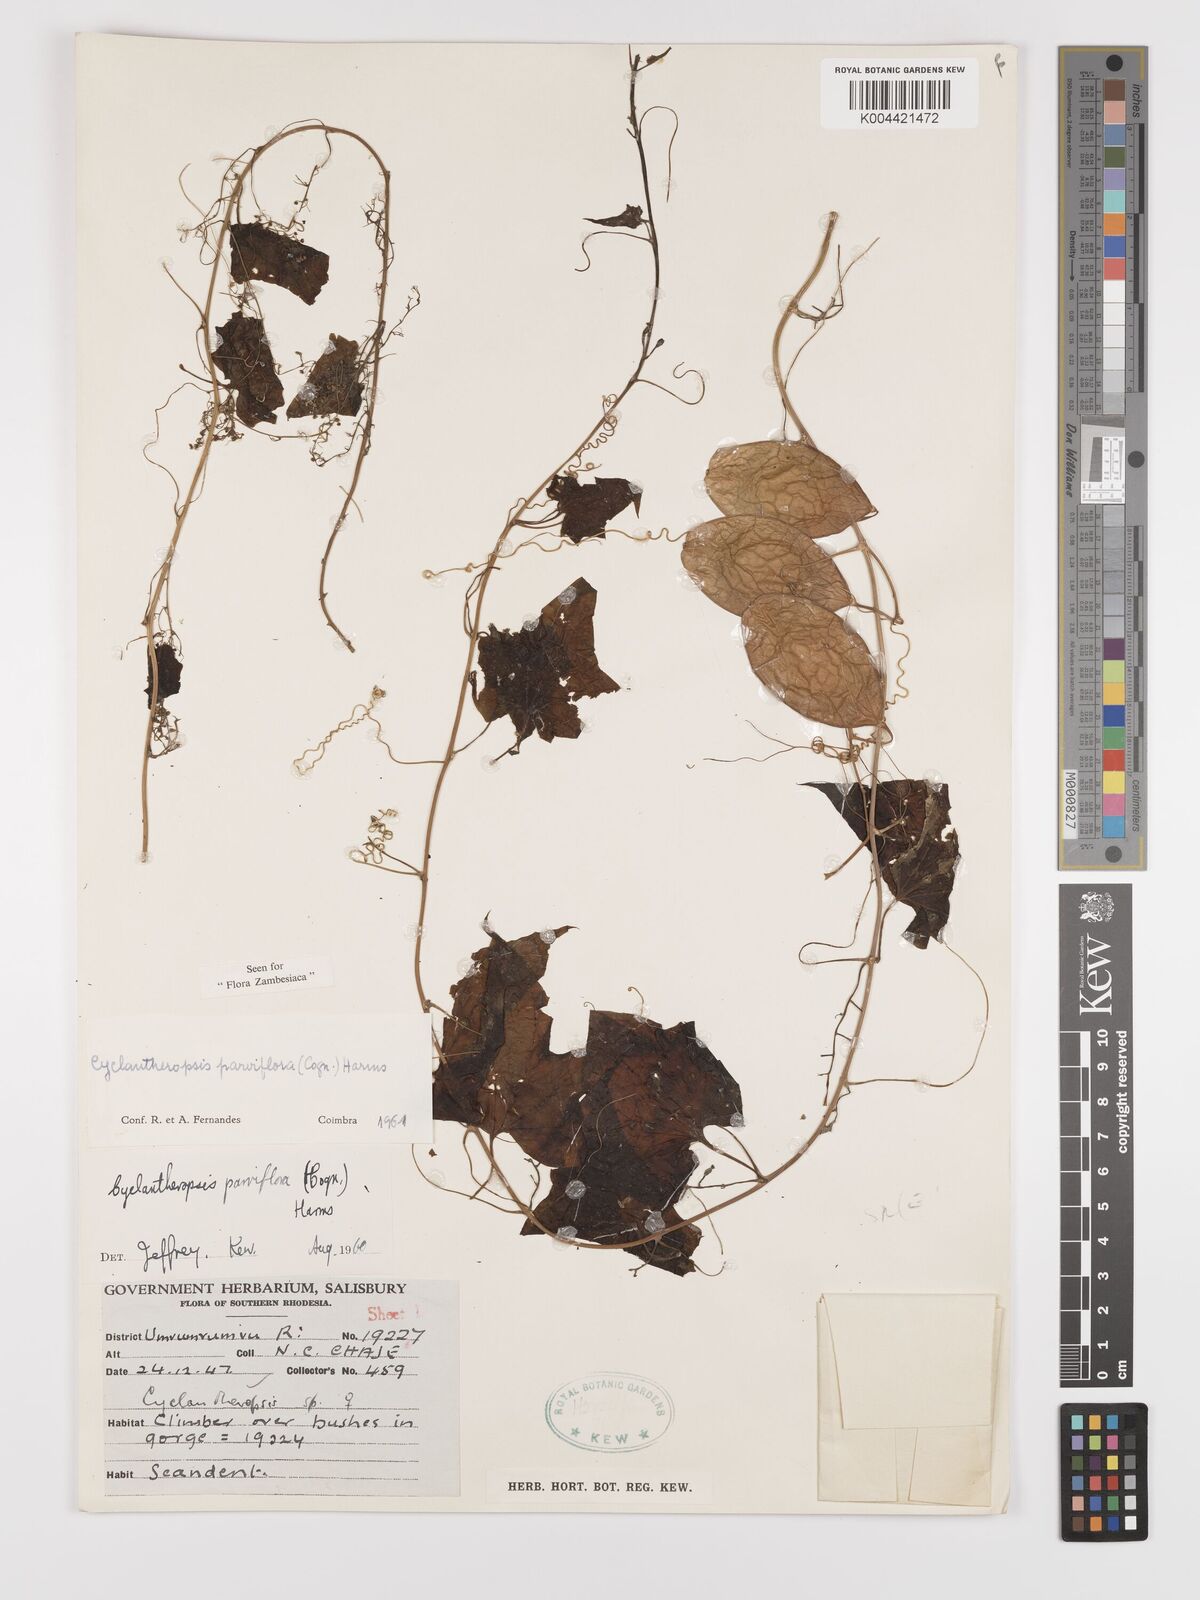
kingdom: Plantae
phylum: Tracheophyta
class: Magnoliopsida
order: Cucurbitales
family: Cucurbitaceae
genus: Cyclantheropsis
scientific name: Cyclantheropsis parviflora
